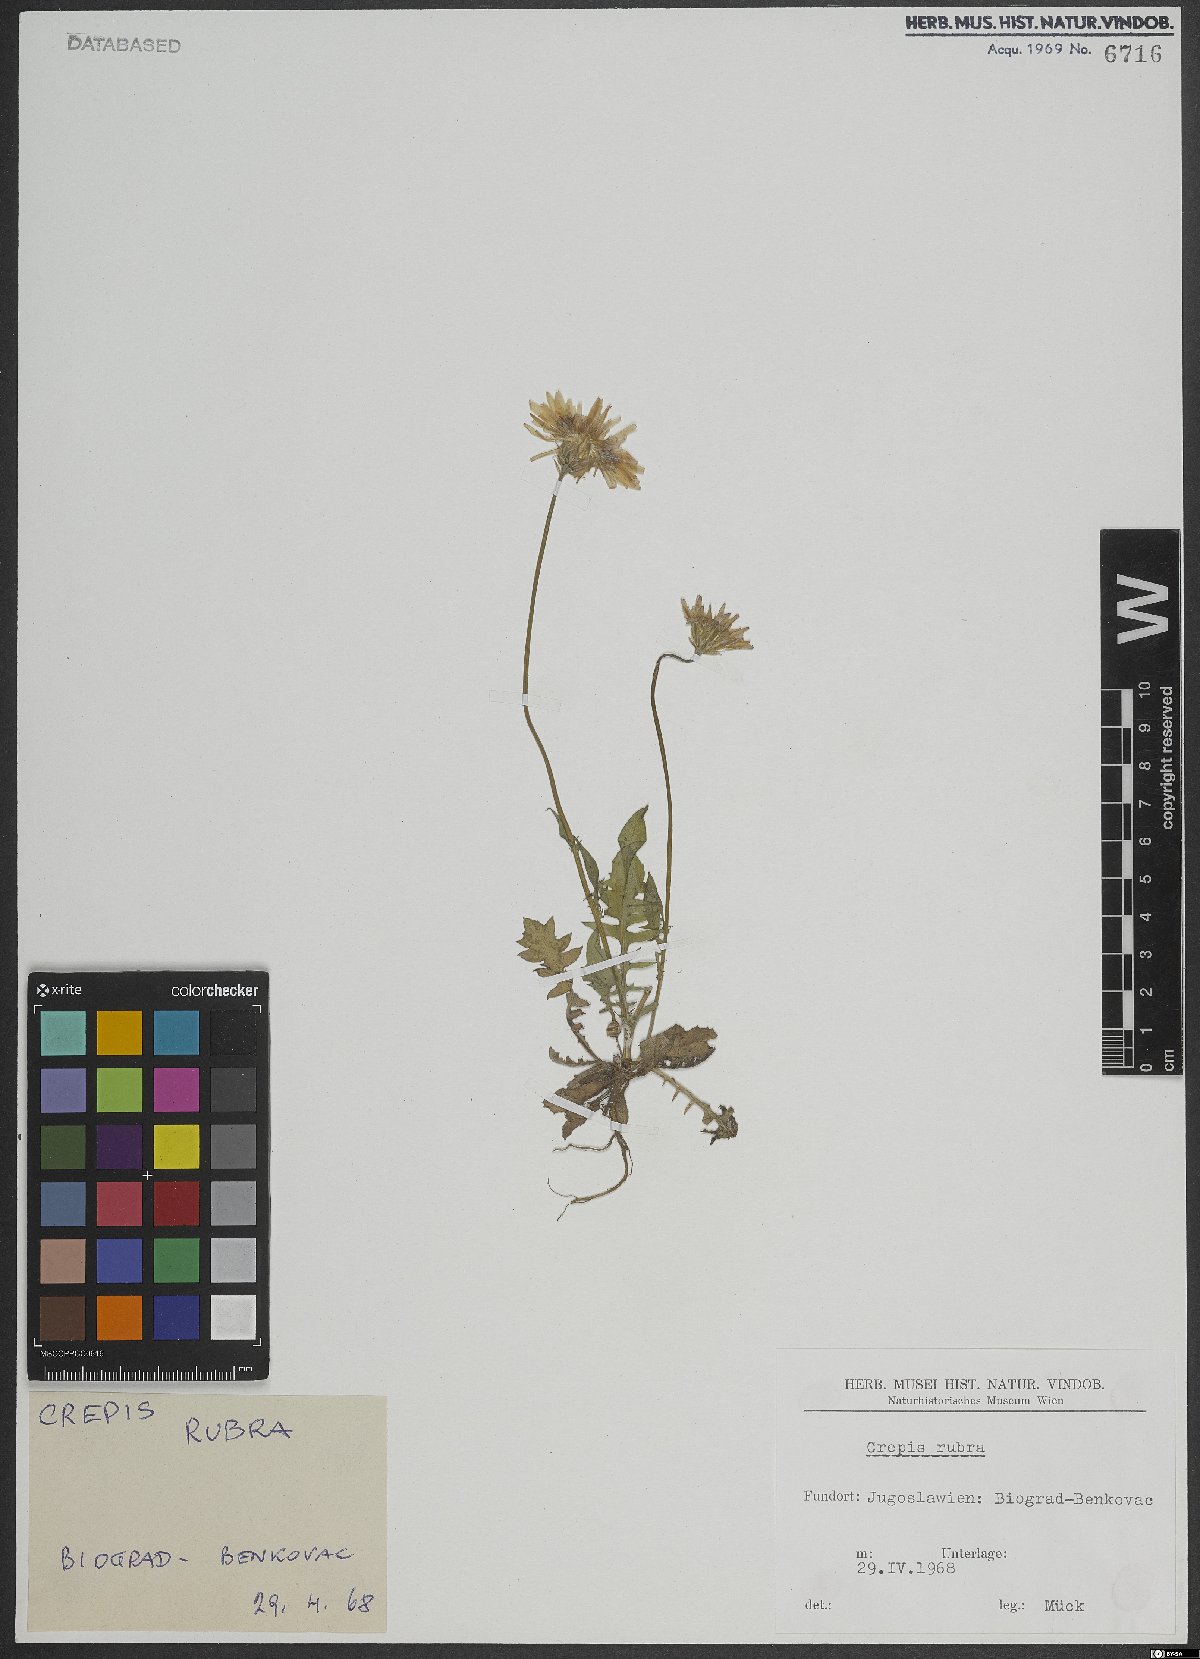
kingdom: Plantae
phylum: Tracheophyta
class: Magnoliopsida
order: Asterales
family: Asteraceae
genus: Crepis
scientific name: Crepis rubra
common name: Pink hawk's-beard
